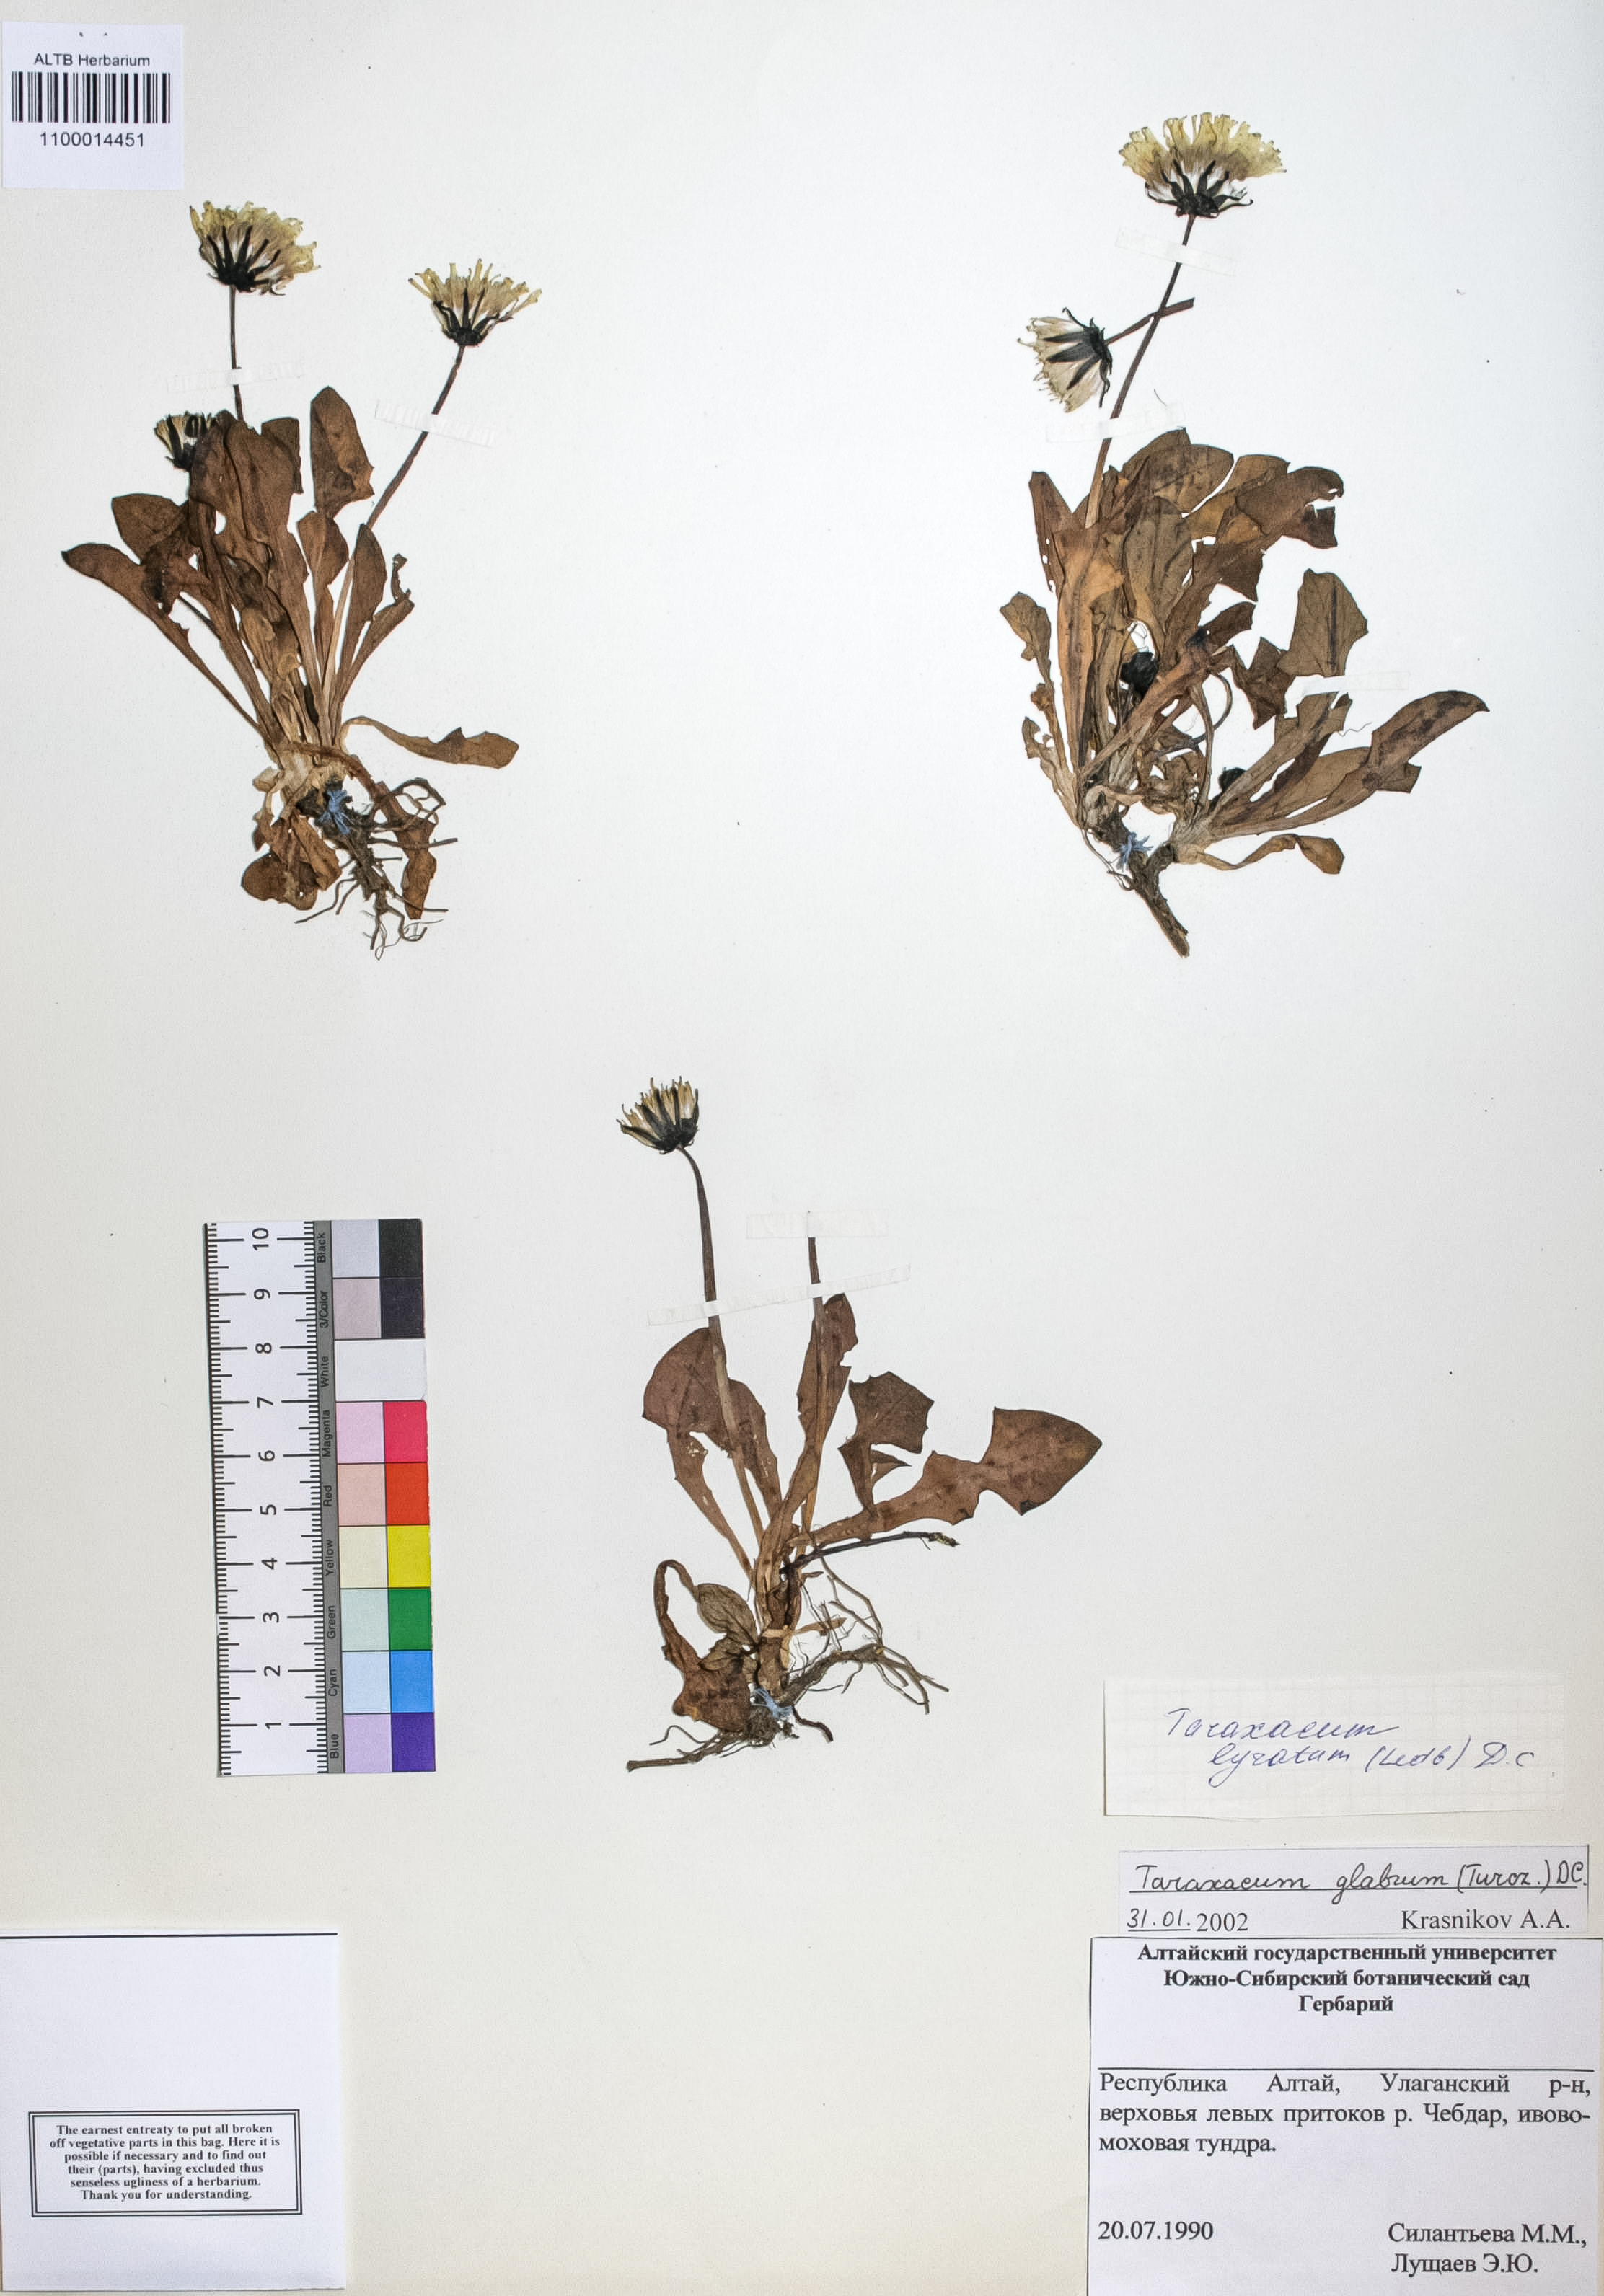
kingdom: Plantae
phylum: Tracheophyta
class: Magnoliopsida
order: Asterales
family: Asteraceae
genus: Taraxacum
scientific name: Taraxacum glabrum
